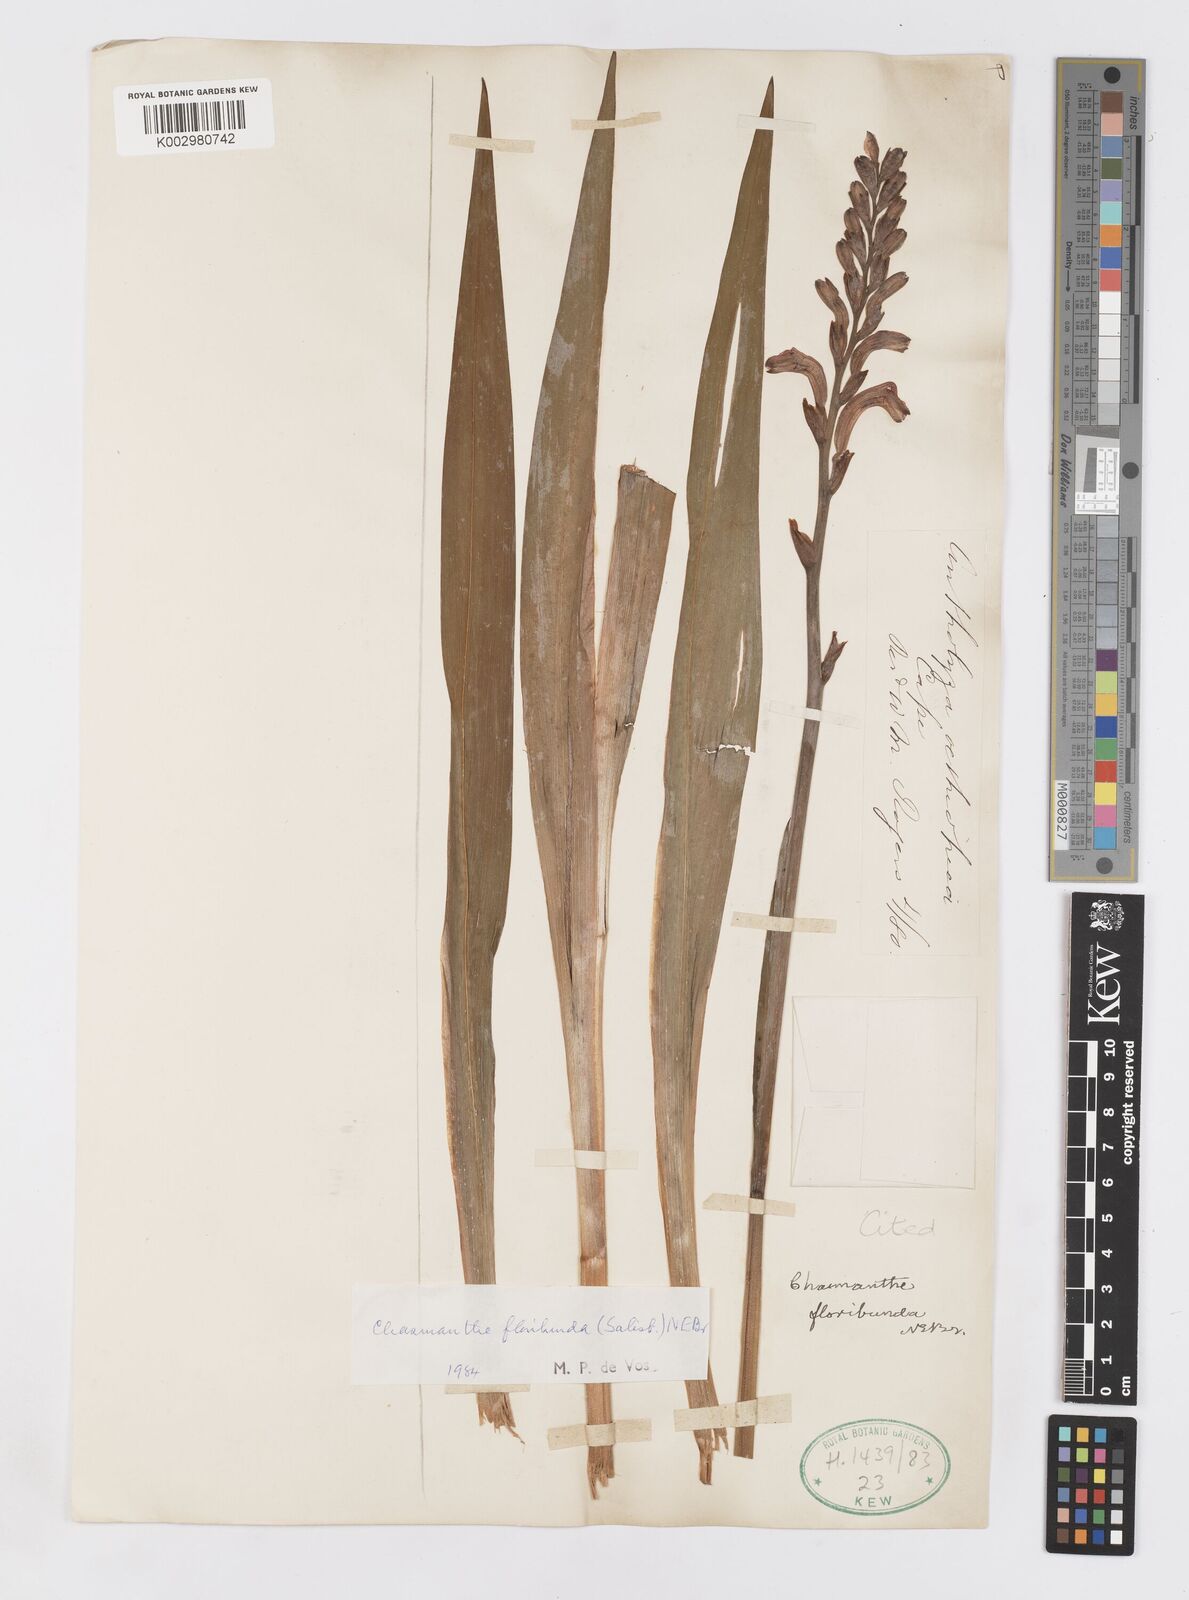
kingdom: Plantae
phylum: Tracheophyta
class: Liliopsida
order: Asparagales
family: Iridaceae
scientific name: Iridaceae
